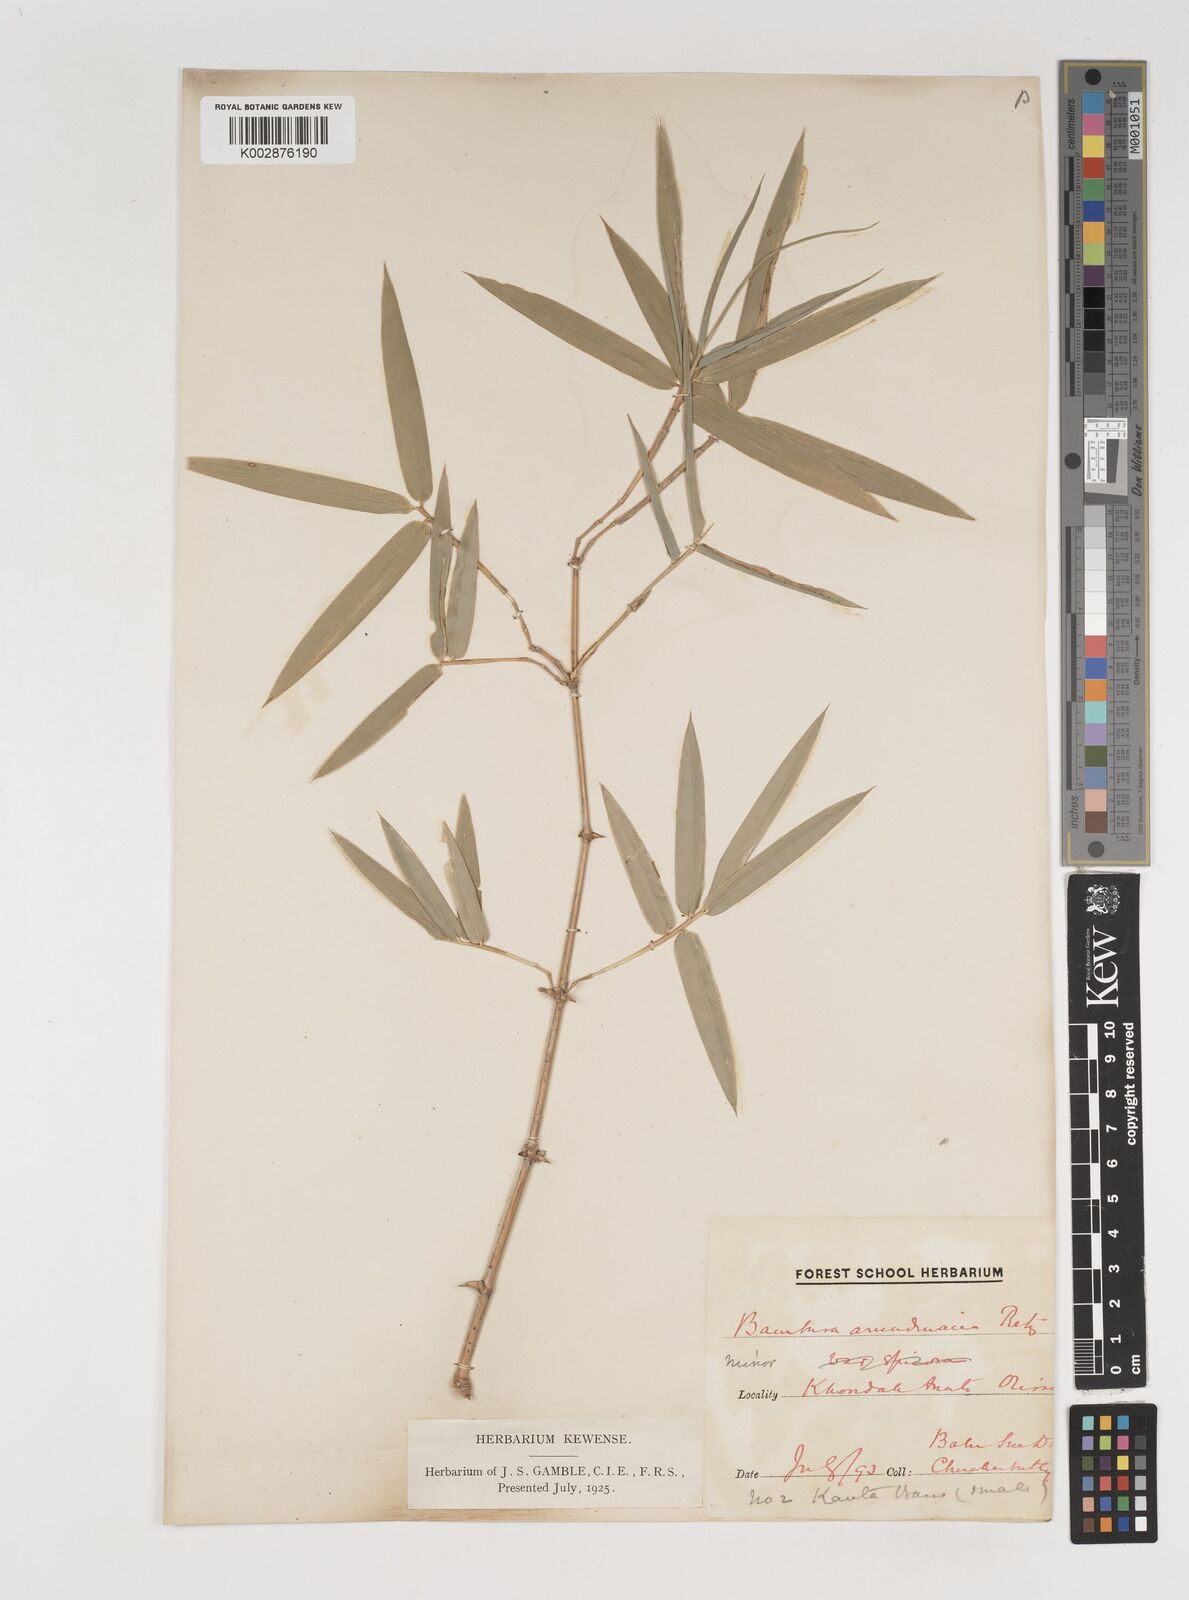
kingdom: Plantae
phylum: Tracheophyta
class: Liliopsida
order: Poales
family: Poaceae
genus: Bambusa
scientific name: Bambusa bambos
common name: Indian thorny bamboo
